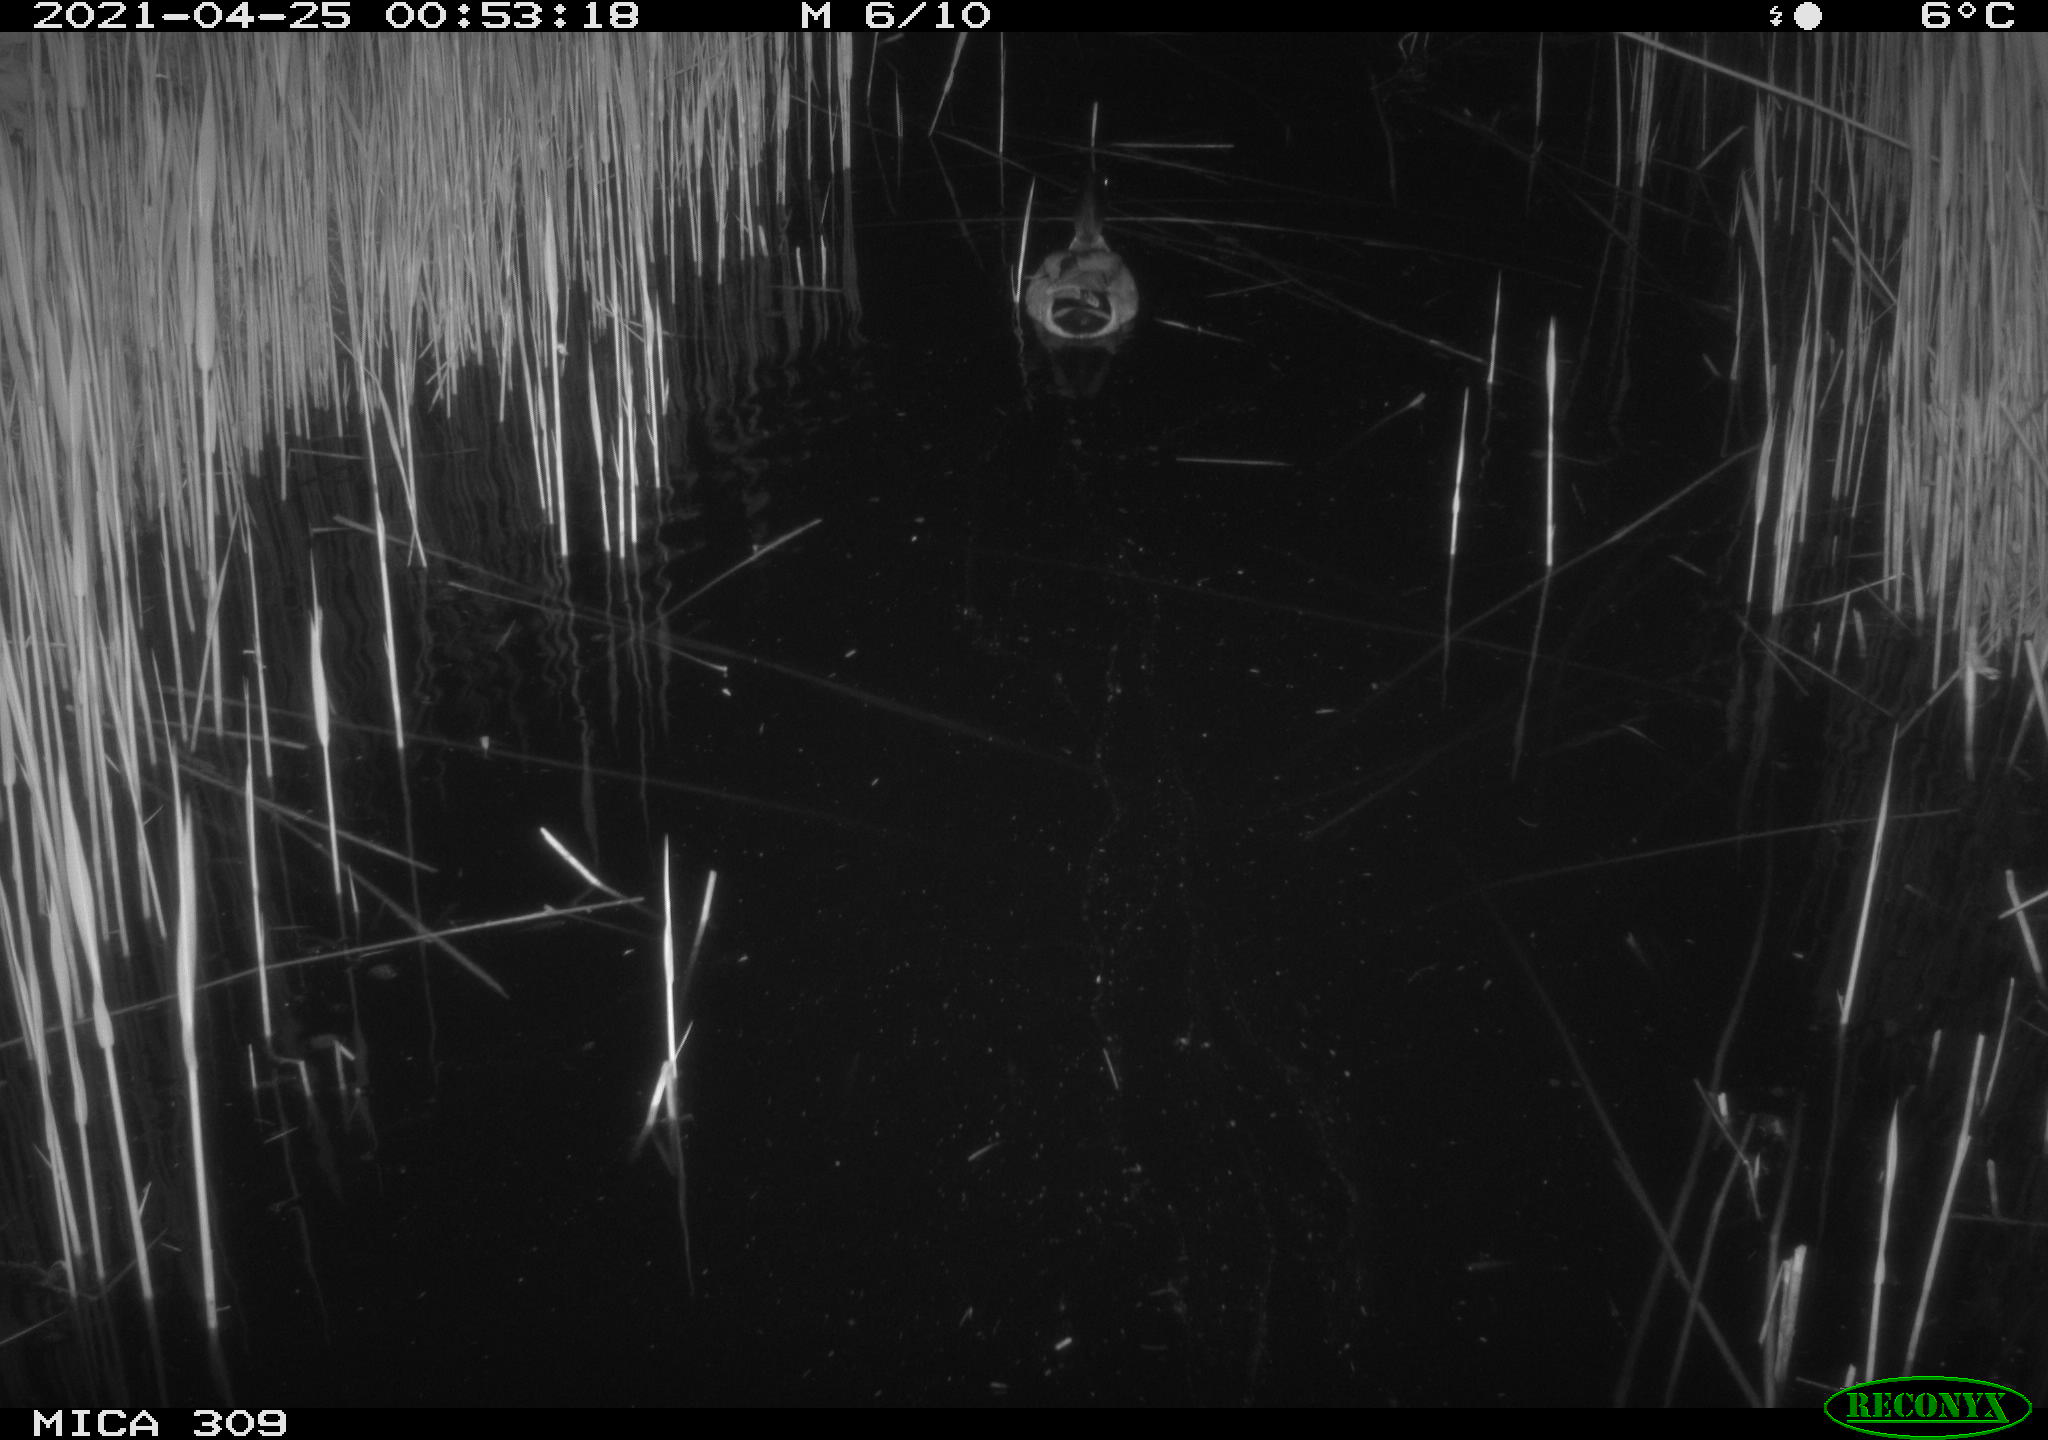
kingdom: Animalia
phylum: Chordata
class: Aves
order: Anseriformes
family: Anatidae
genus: Anas
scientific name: Anas platyrhynchos
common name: Mallard
